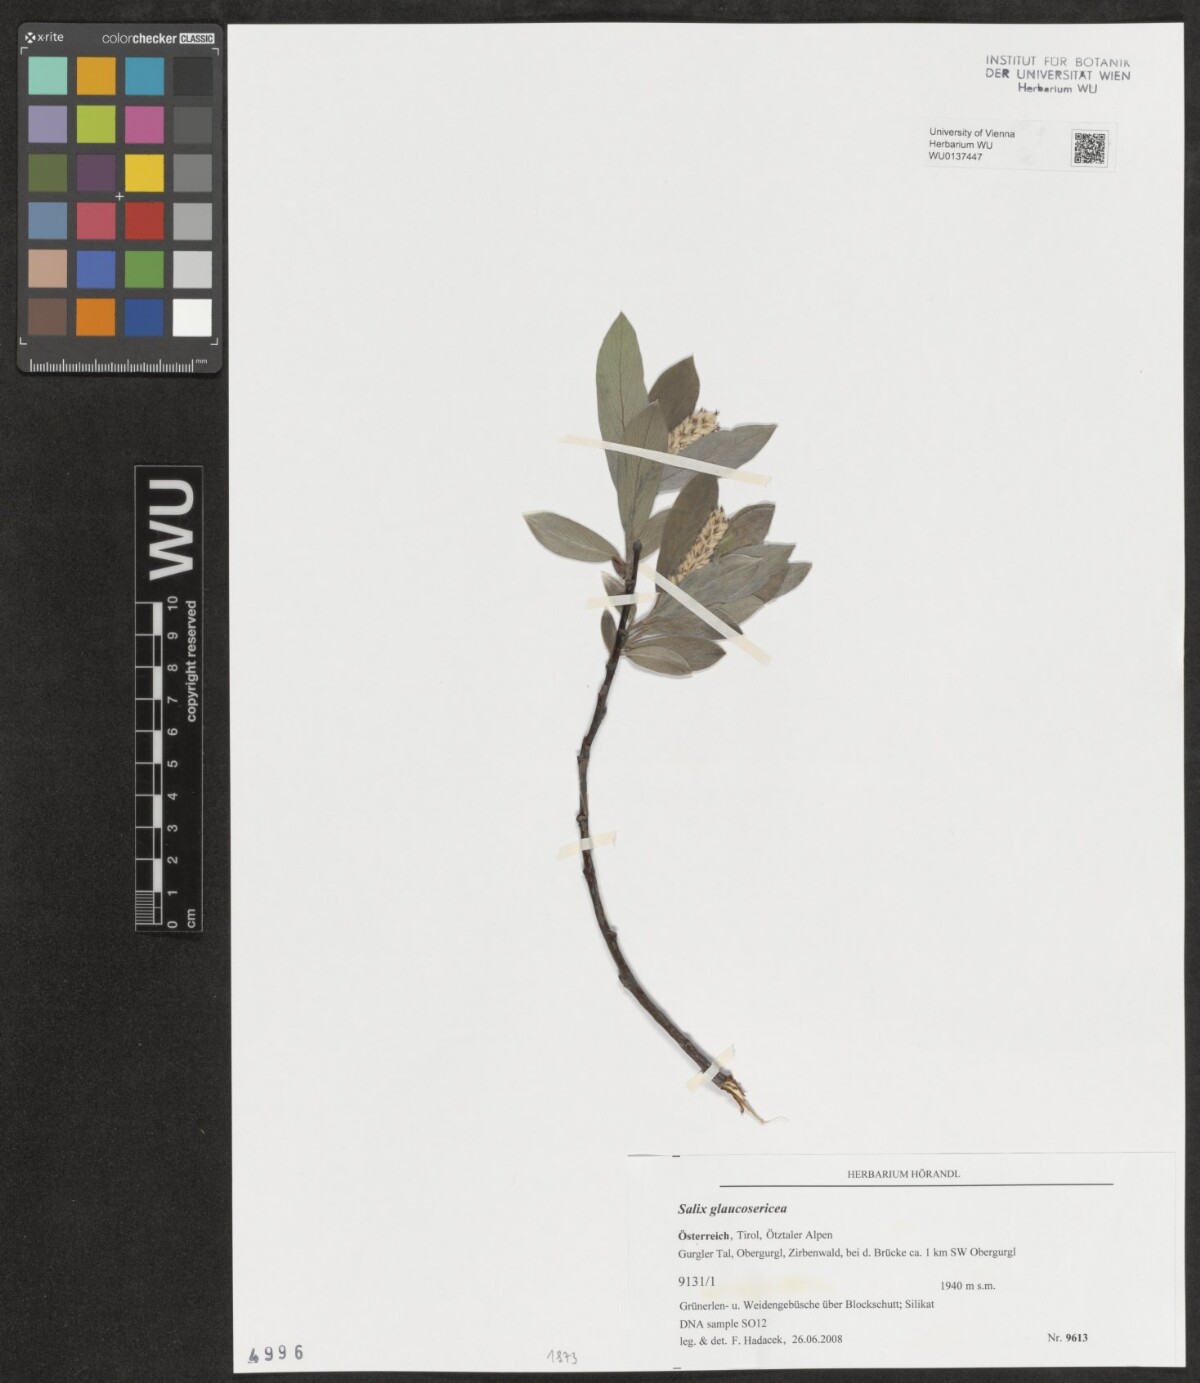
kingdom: Plantae
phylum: Tracheophyta
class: Magnoliopsida
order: Malpighiales
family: Salicaceae
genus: Salix
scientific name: Salix glaucosericea
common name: Alpine gray willow
